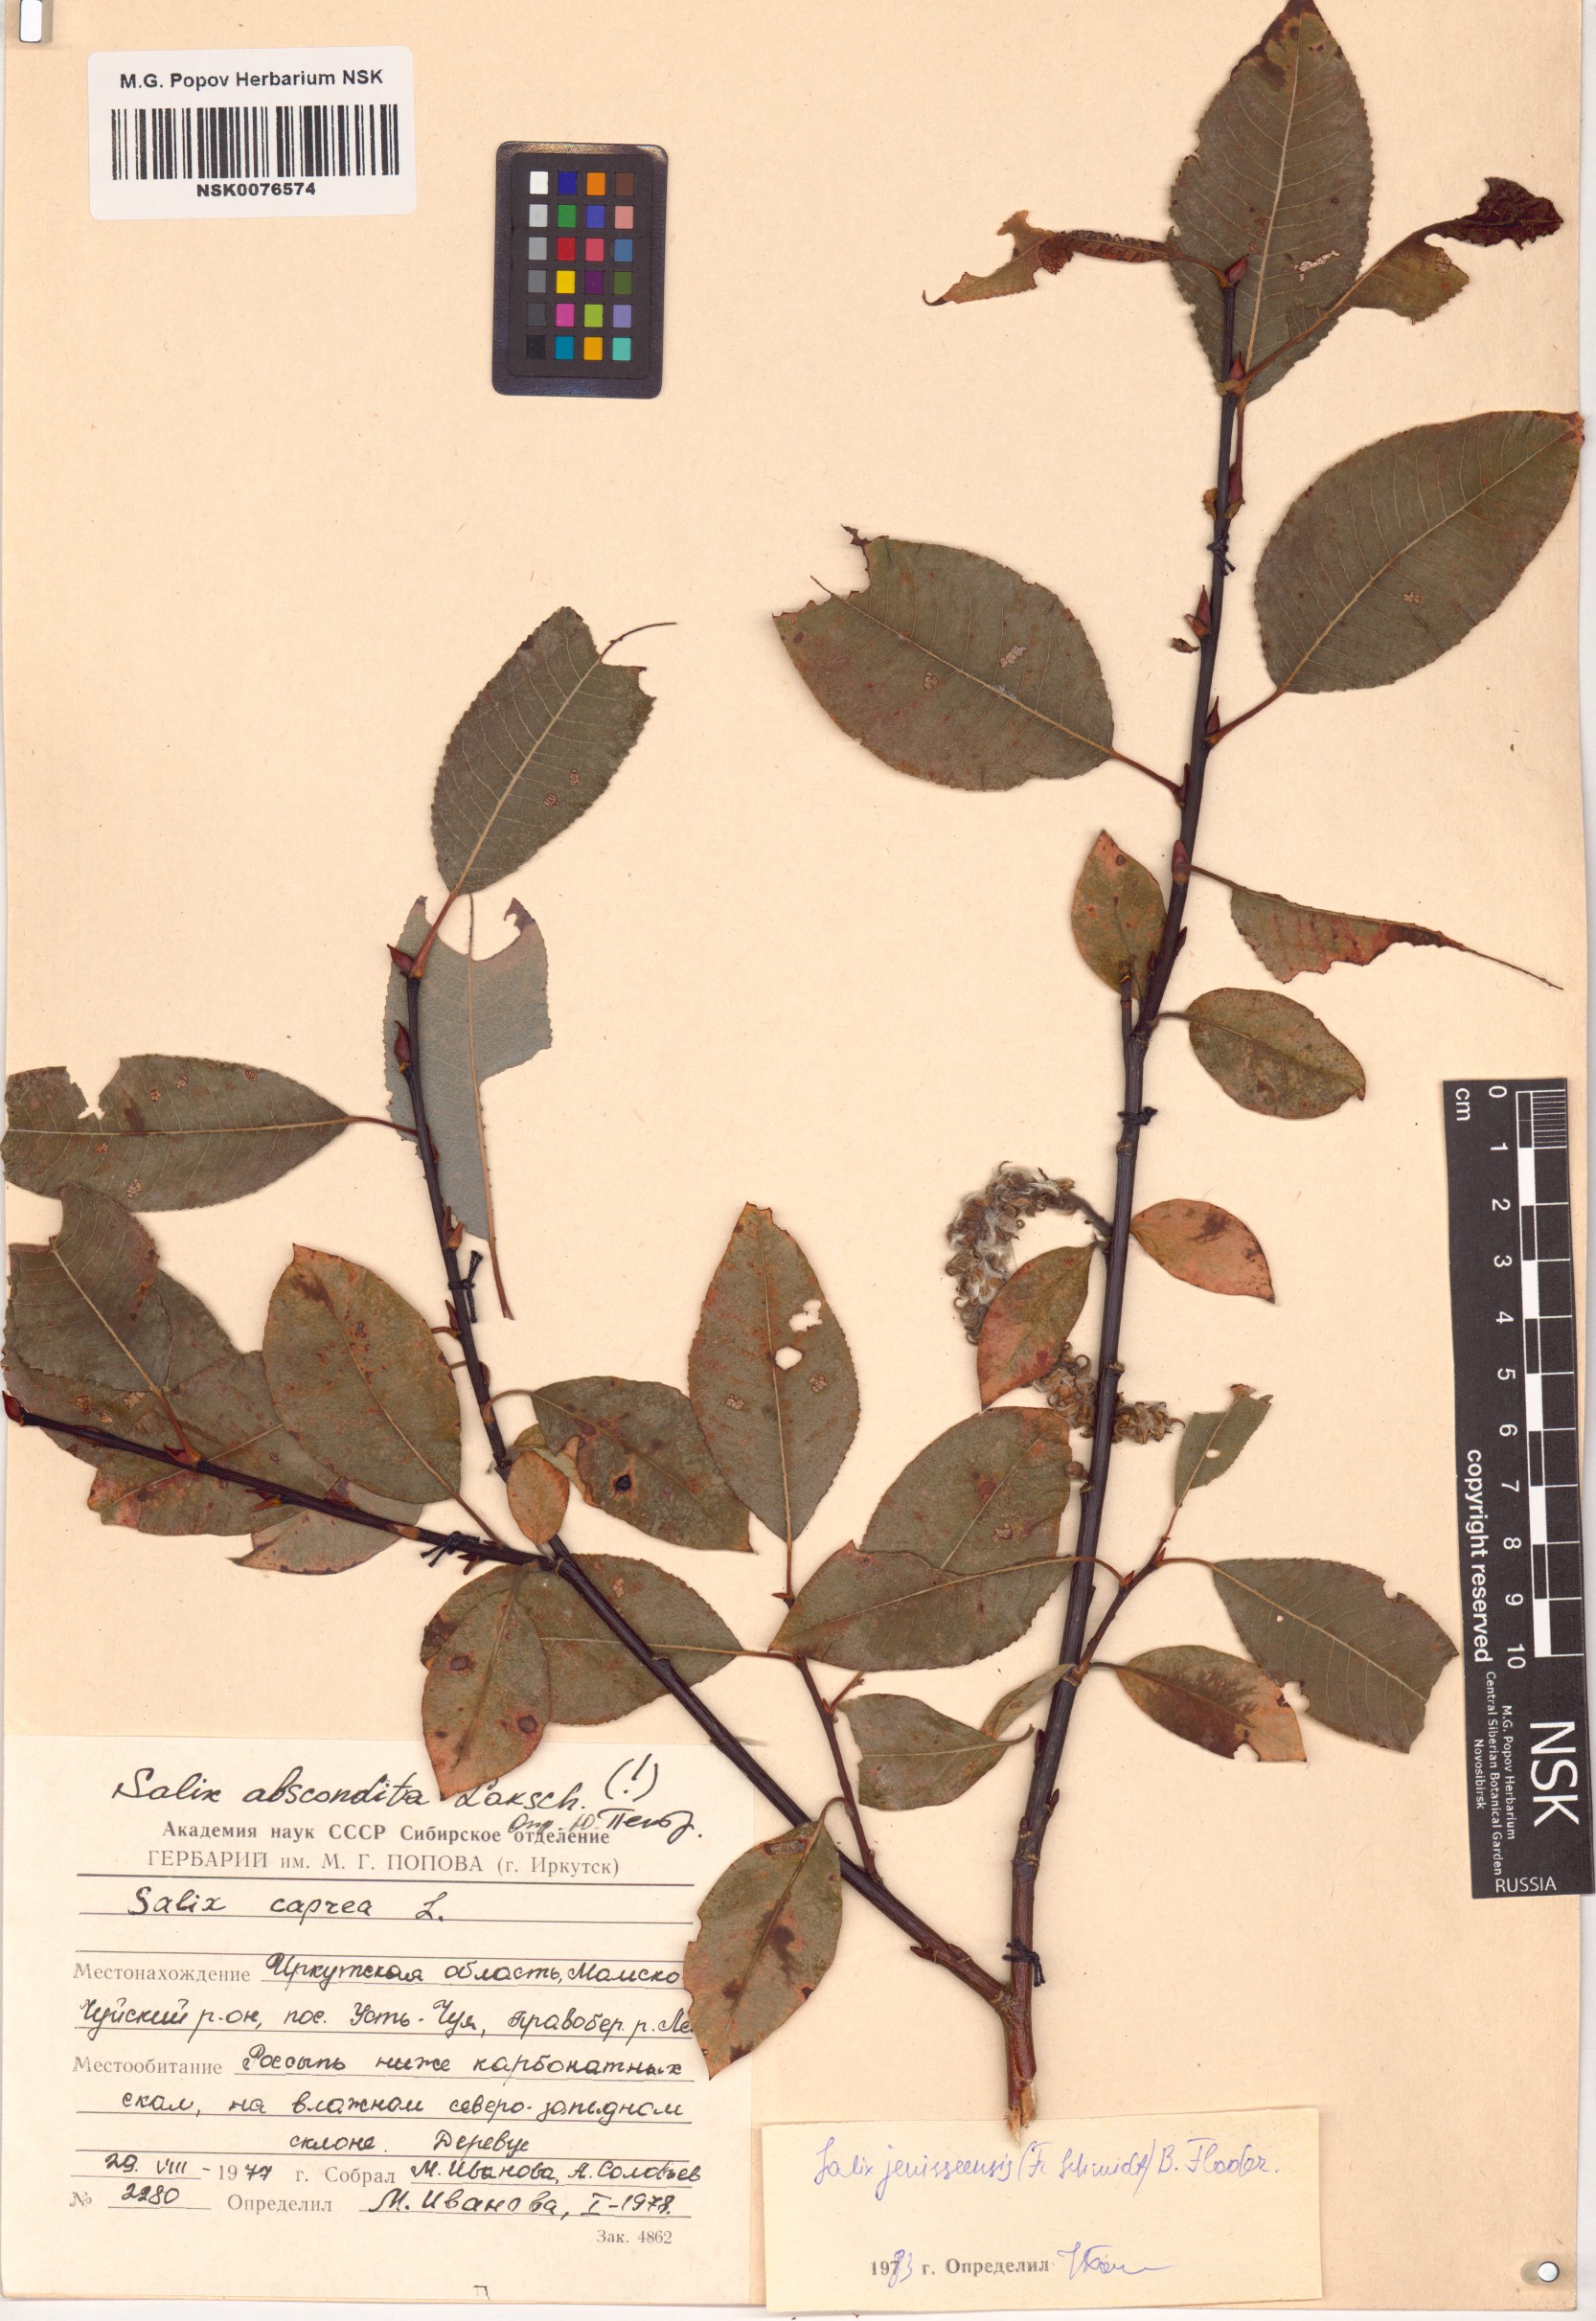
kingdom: Plantae
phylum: Tracheophyta
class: Magnoliopsida
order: Malpighiales
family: Salicaceae
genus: Salix
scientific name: Salix jenisseensis
